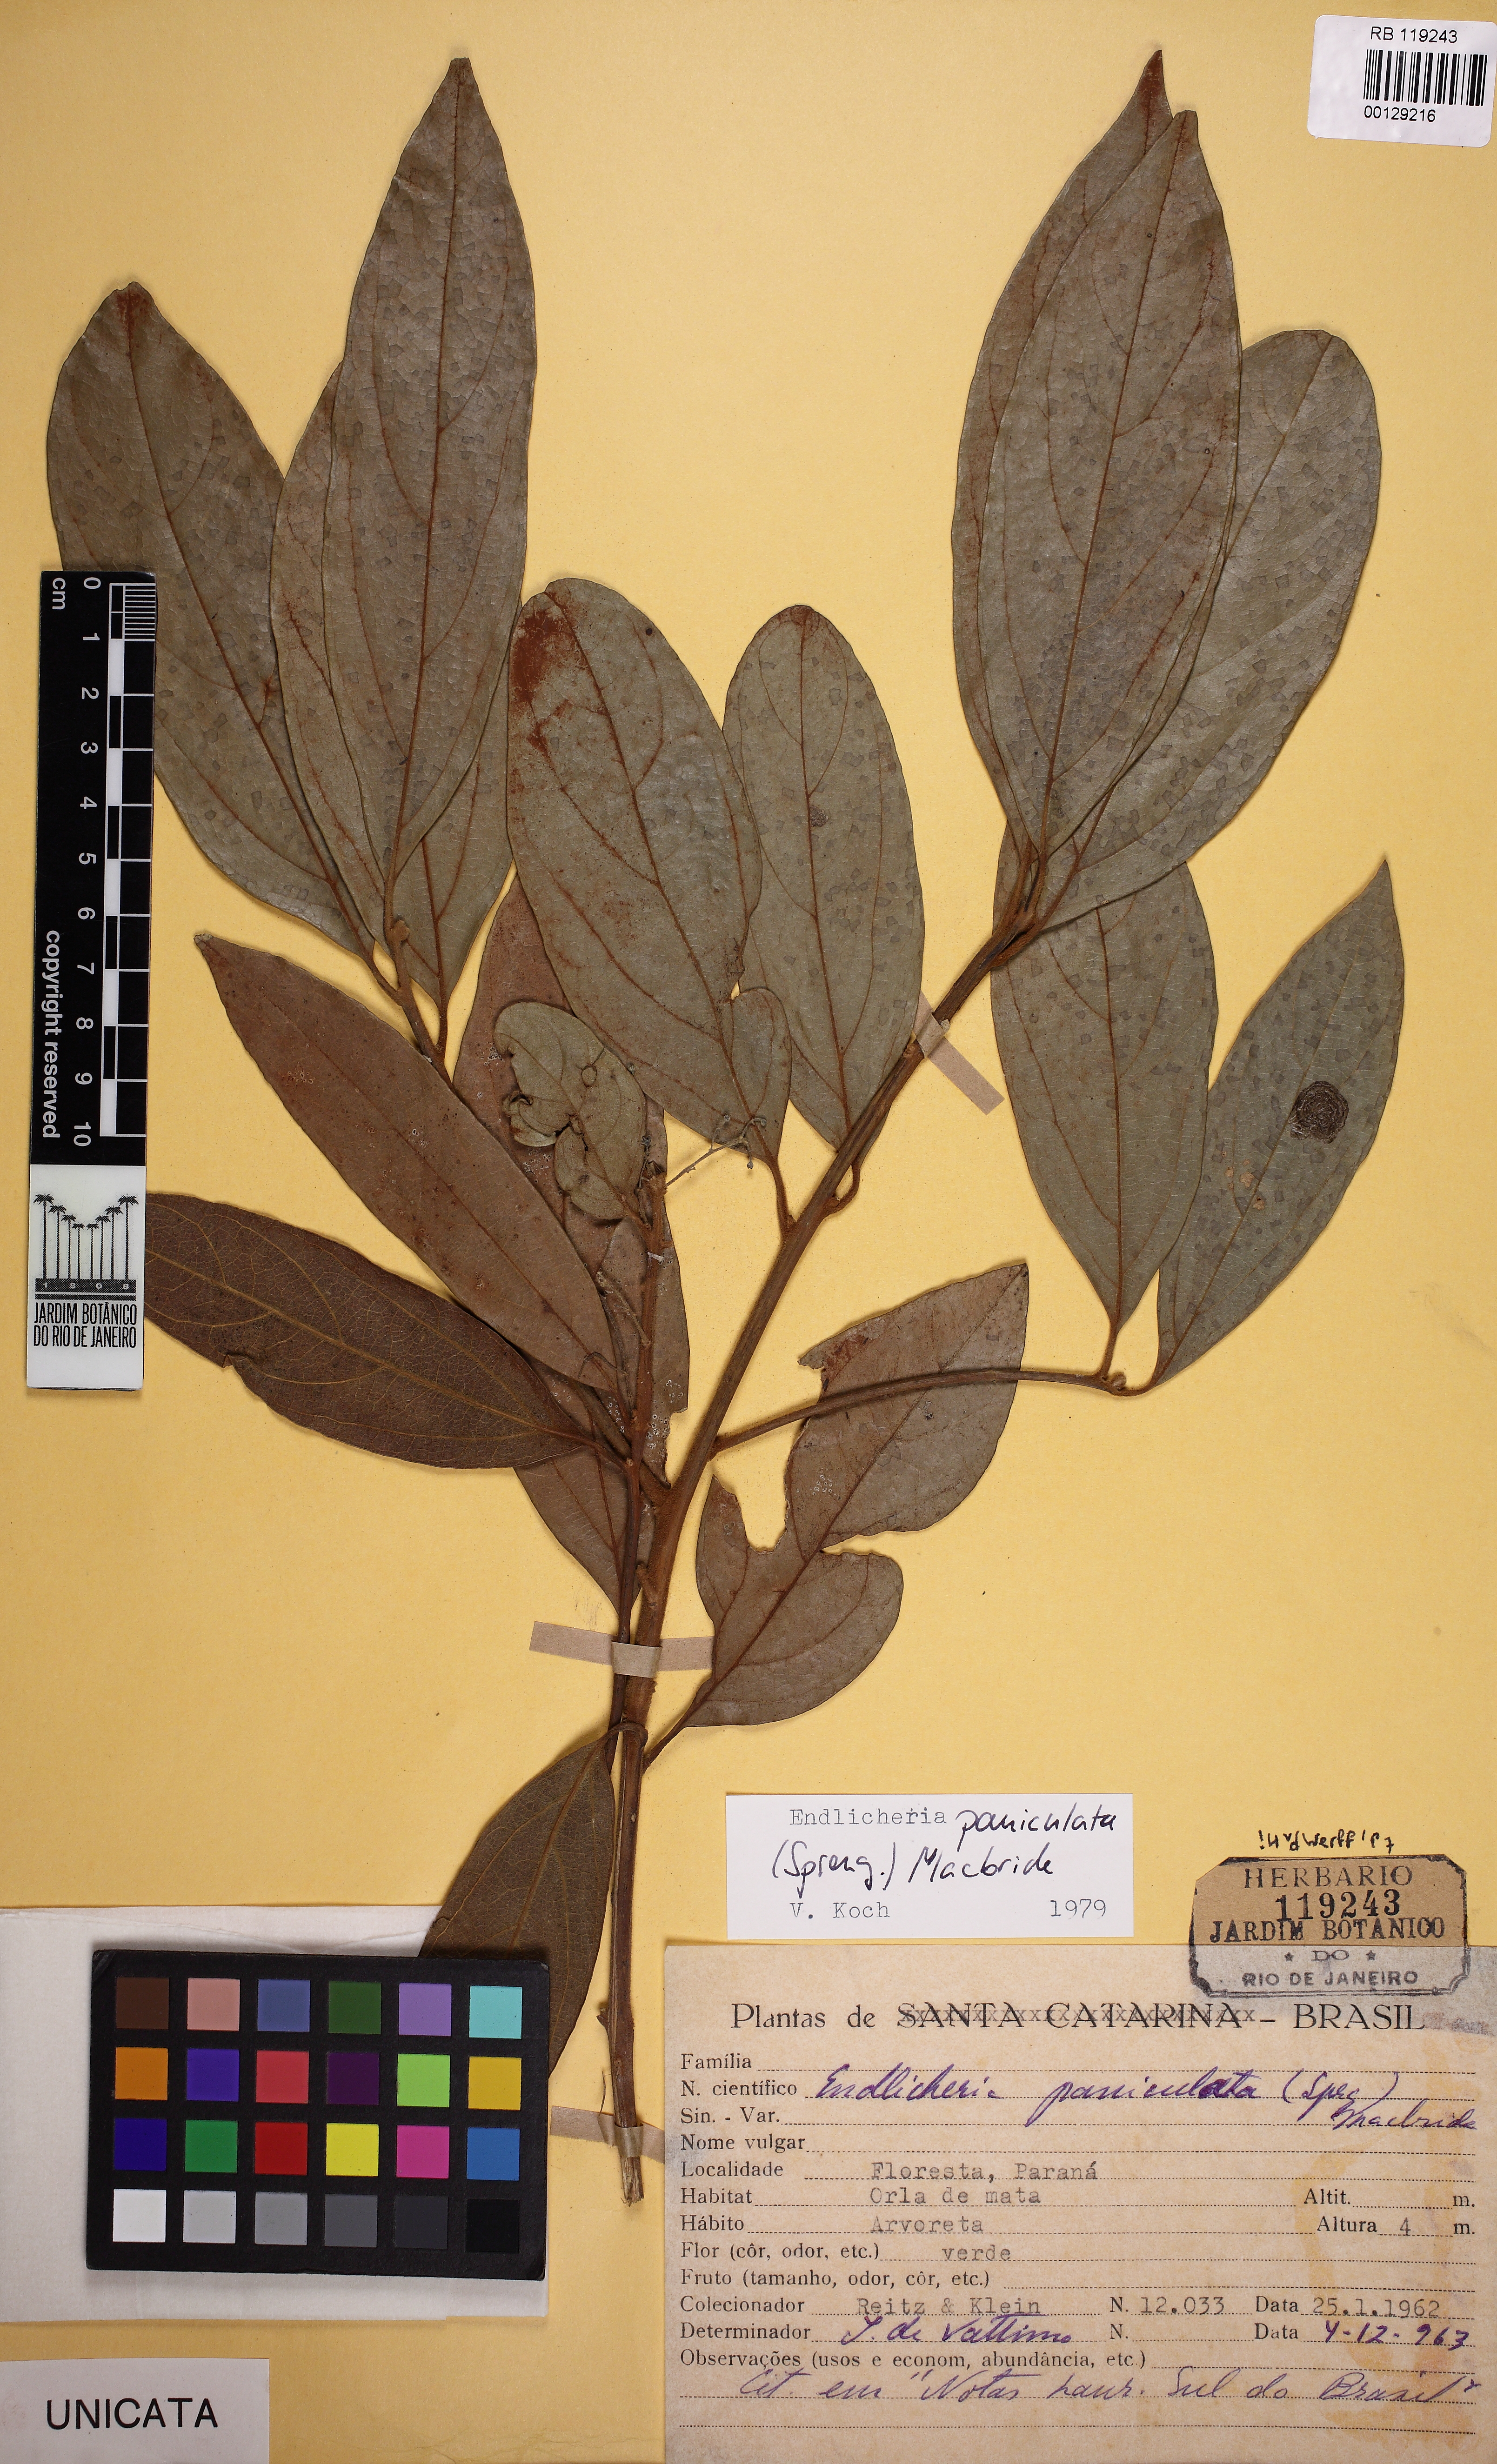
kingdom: Plantae
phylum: Tracheophyta
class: Magnoliopsida
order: Laurales
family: Lauraceae
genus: Endlicheria
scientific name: Endlicheria paniculata
